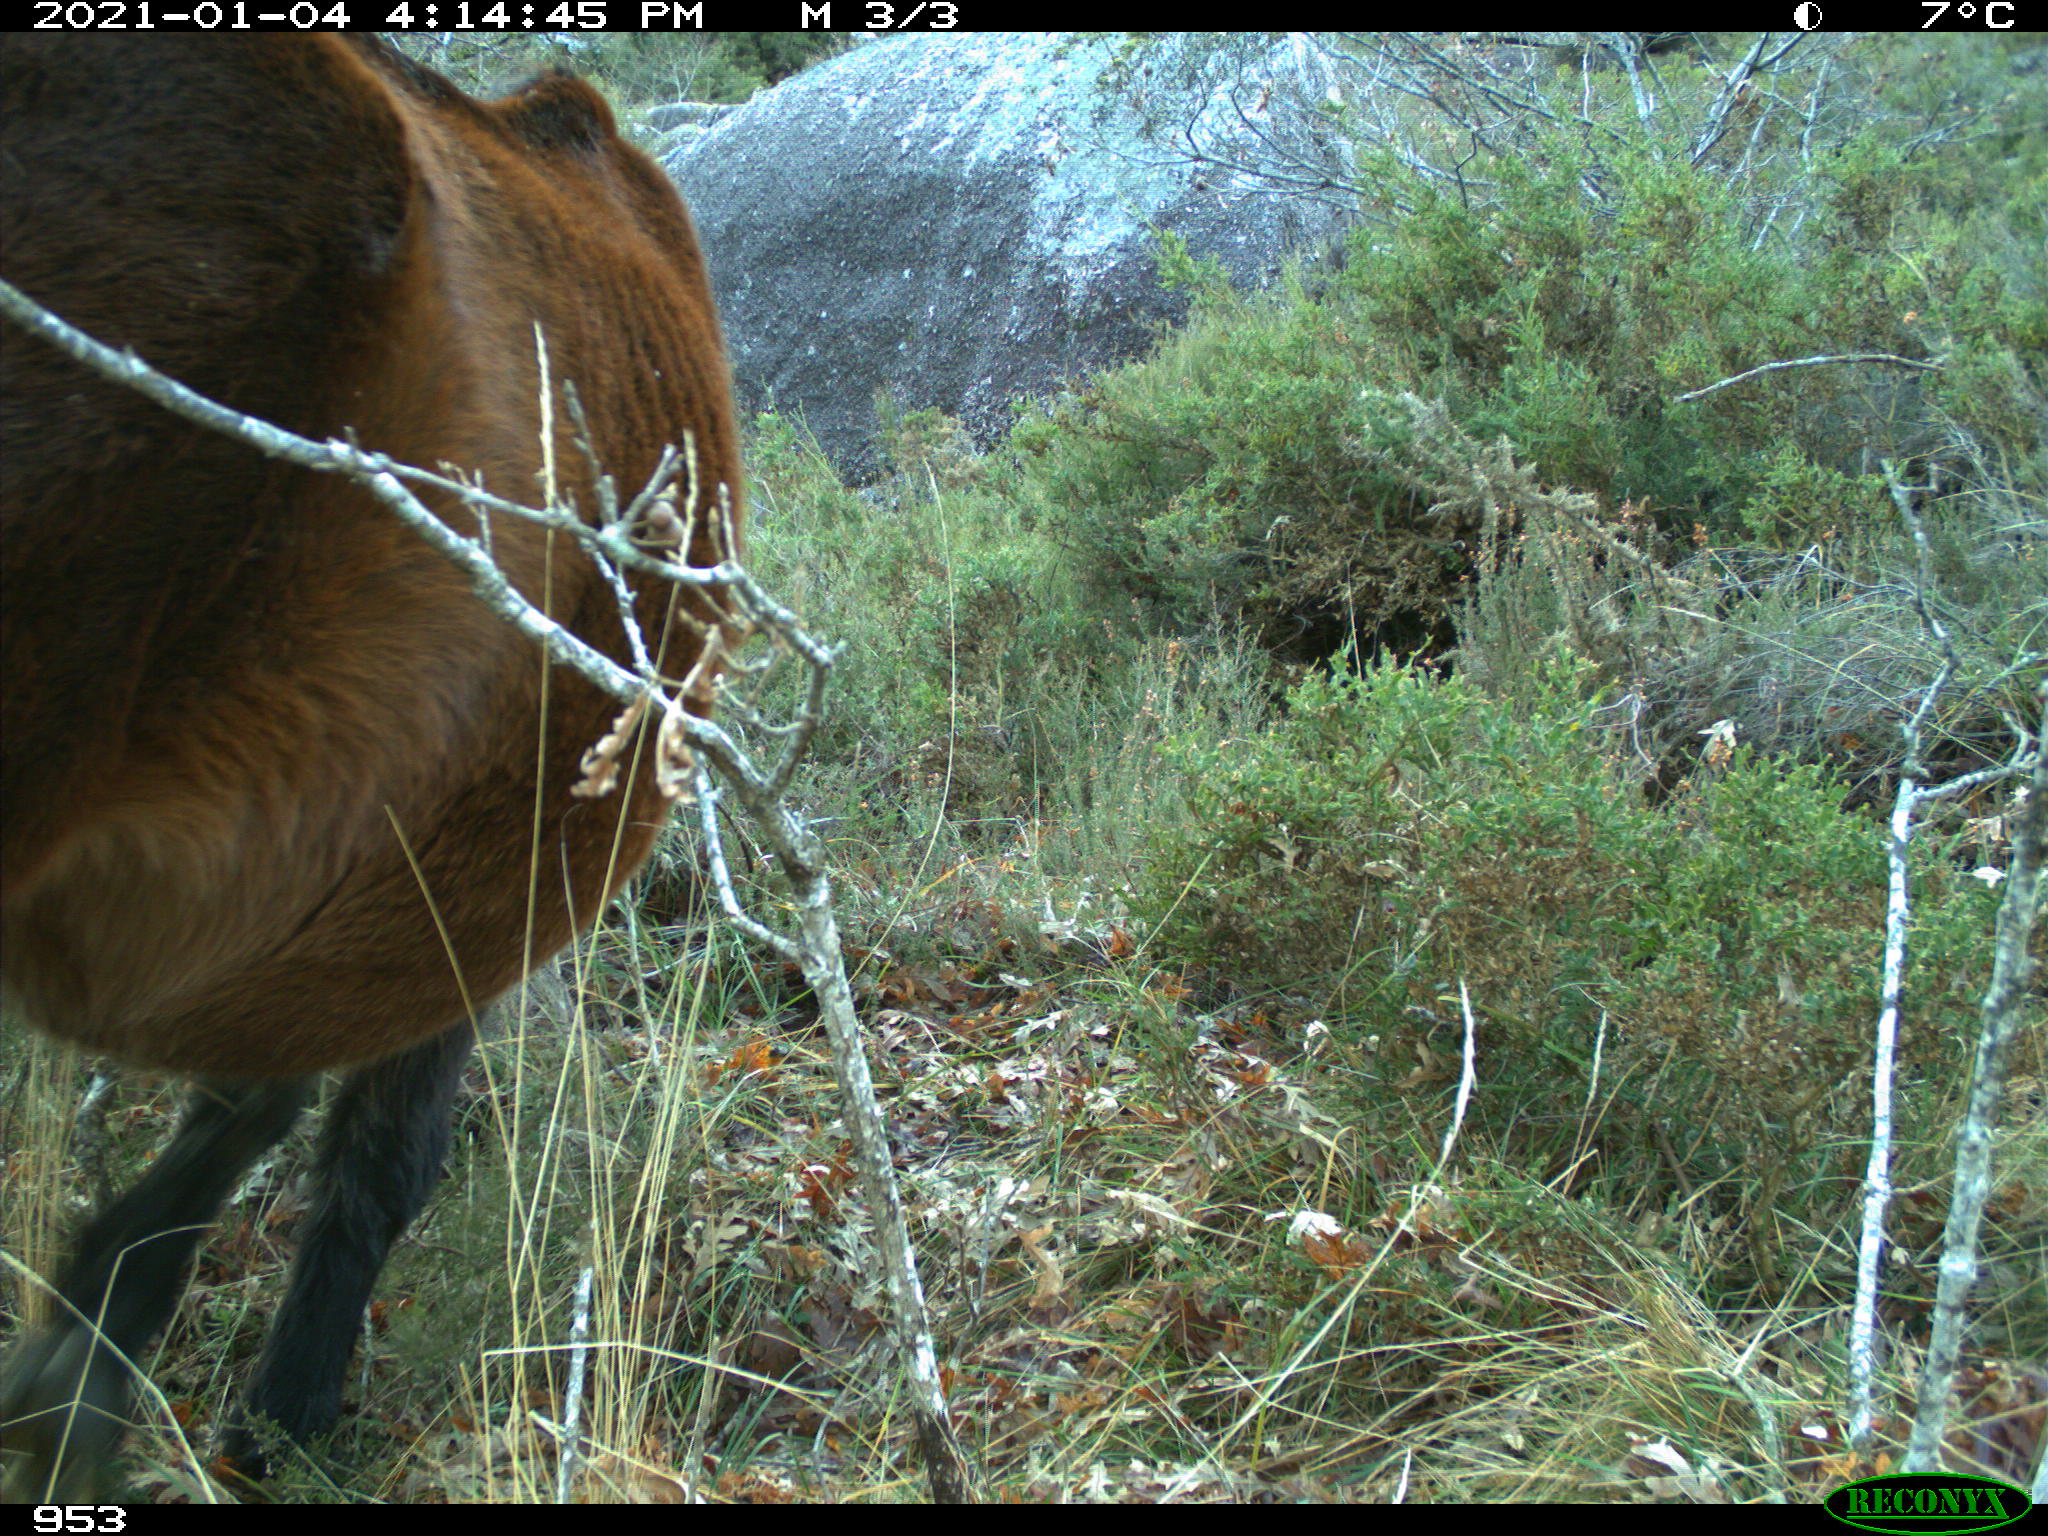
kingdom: Animalia
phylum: Chordata
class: Mammalia
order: Perissodactyla
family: Equidae
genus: Equus
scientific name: Equus caballus
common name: Horse
